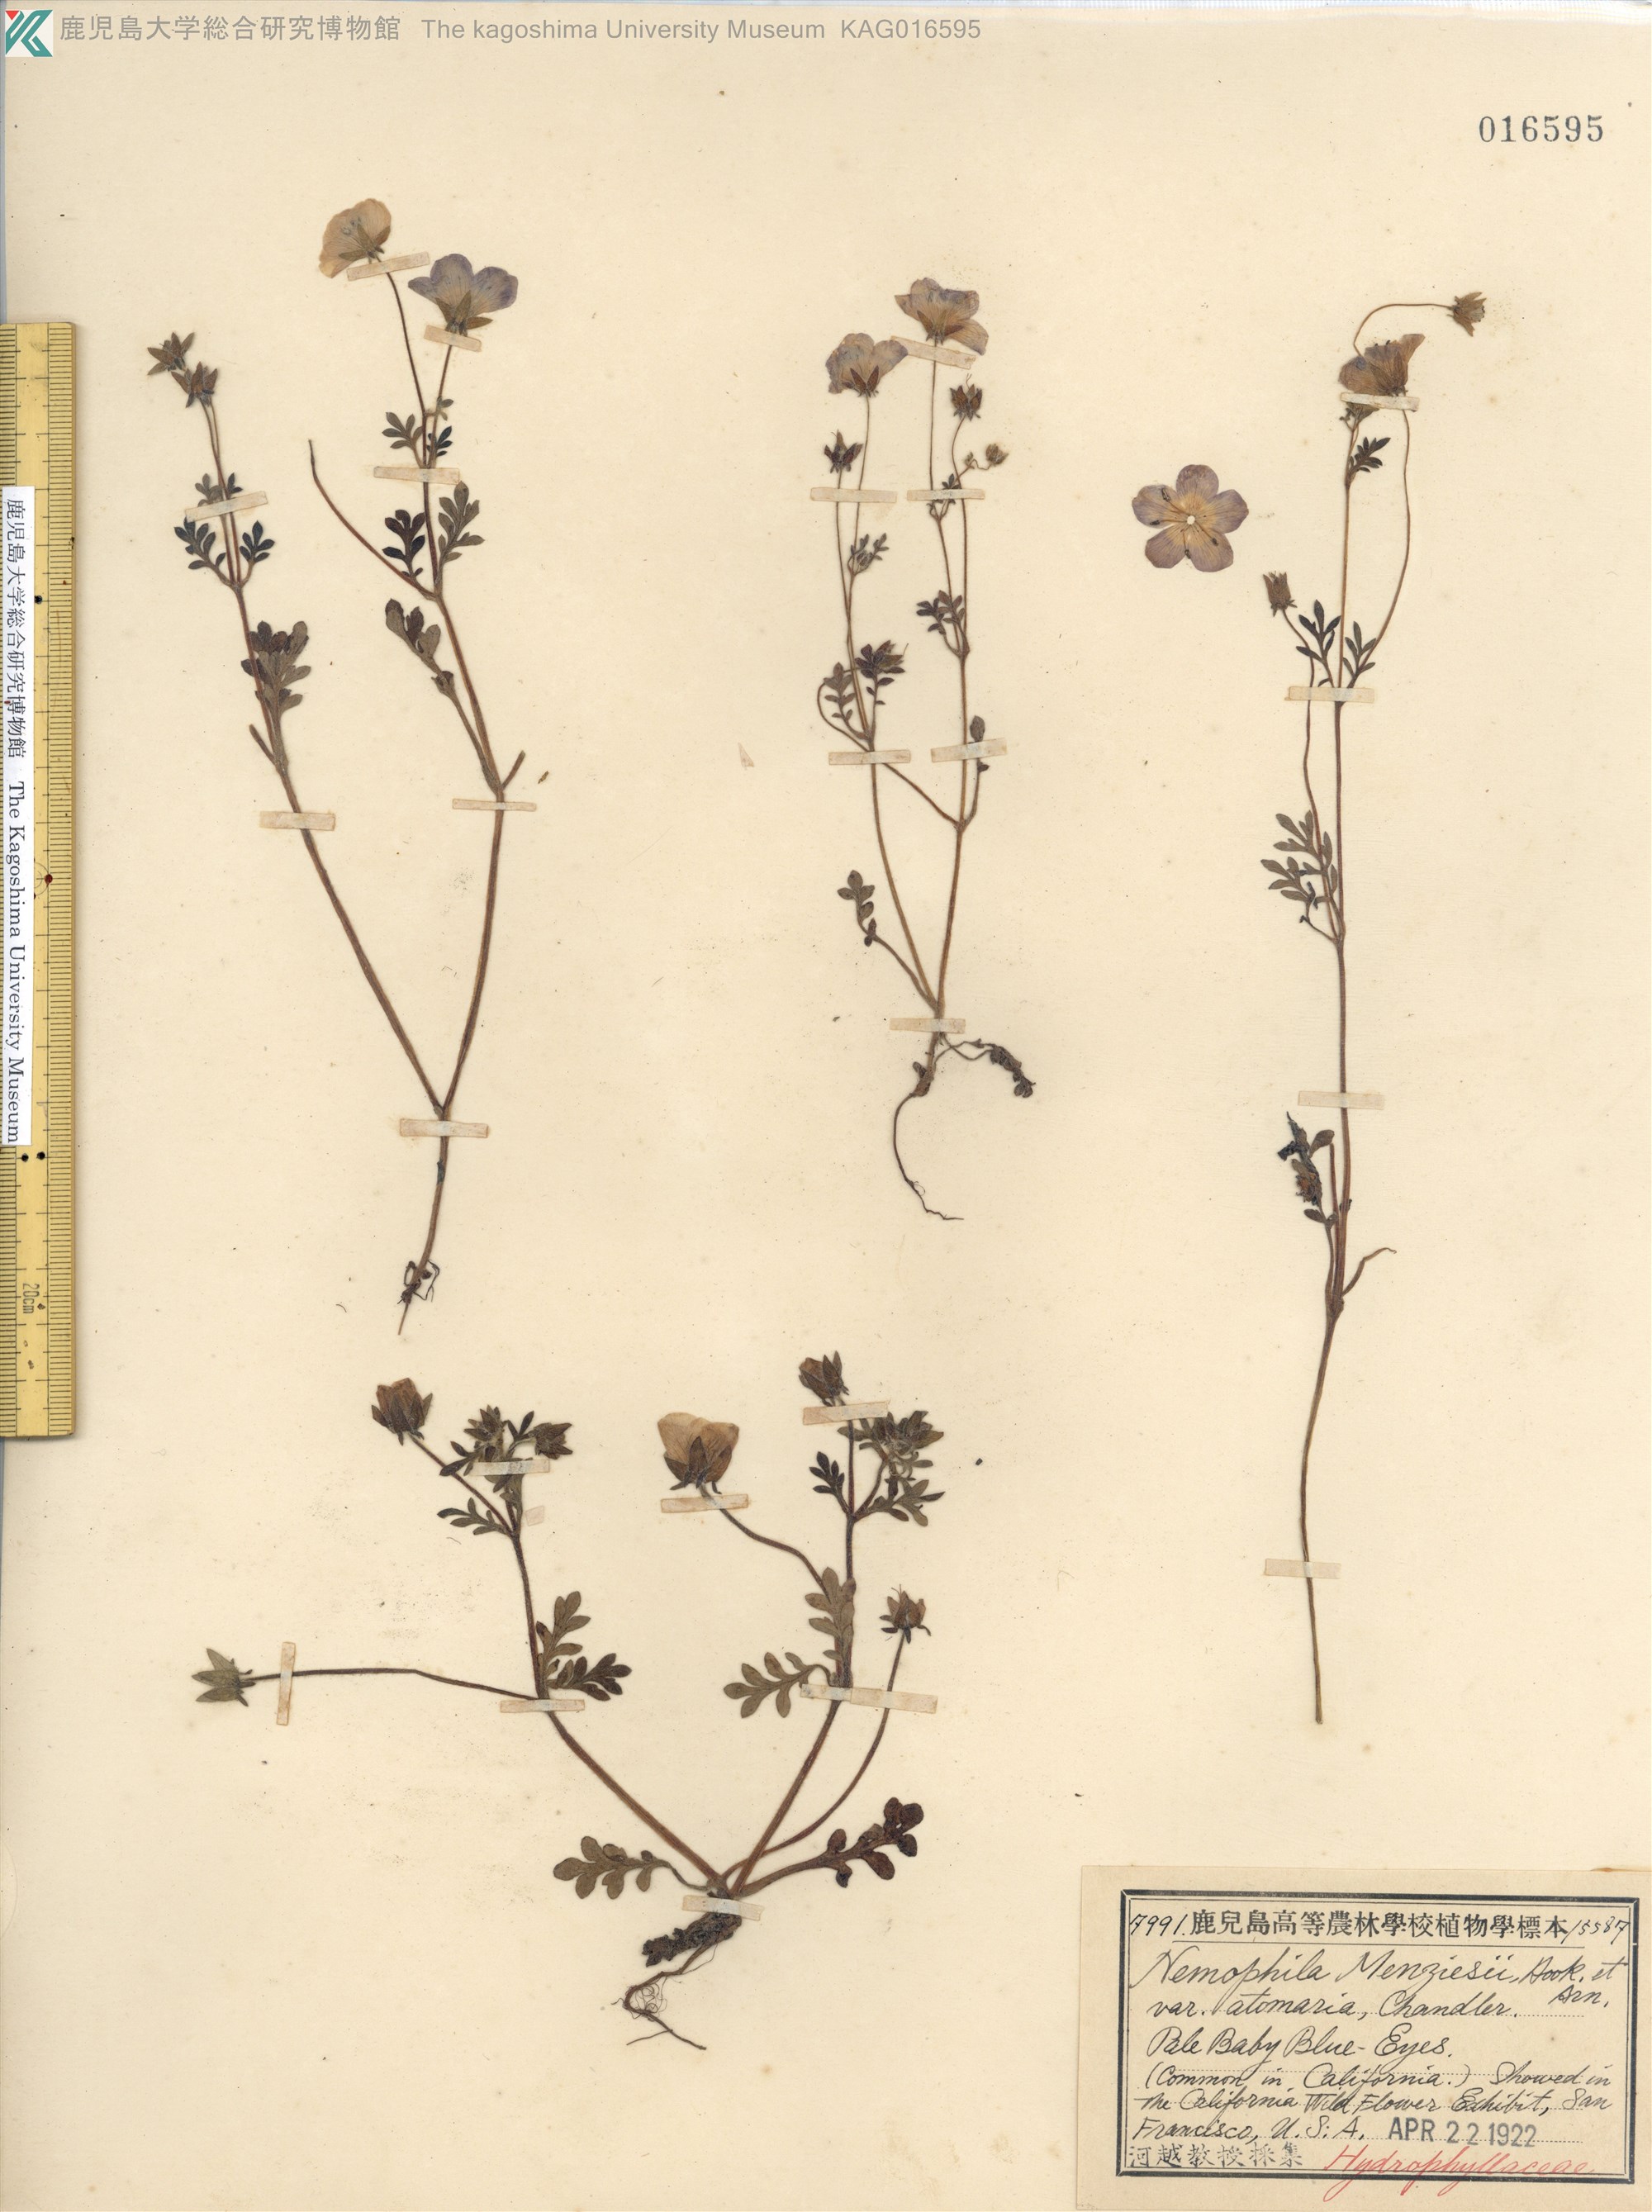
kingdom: Plantae
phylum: Tracheophyta
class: Magnoliopsida
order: Boraginales
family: Hydrophyllaceae
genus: Nemophila
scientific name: Nemophila menziesii
